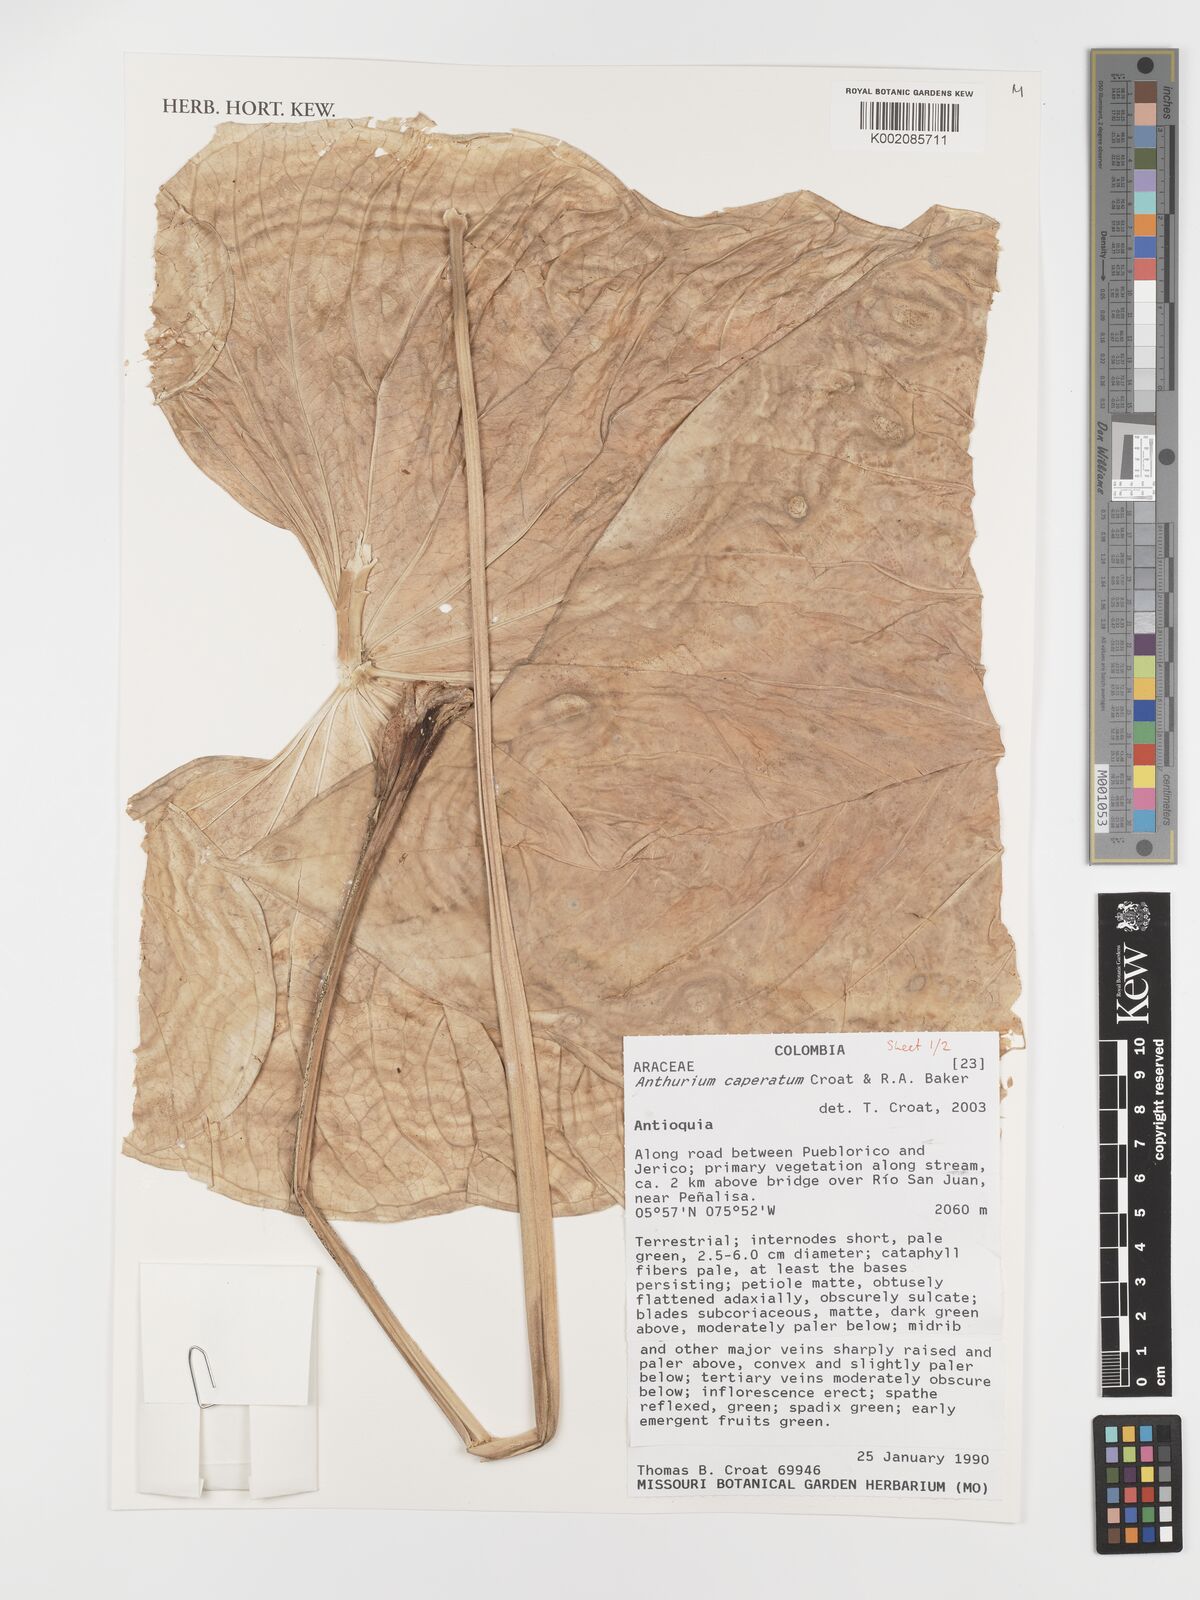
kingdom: Plantae
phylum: Tracheophyta
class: Liliopsida
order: Alismatales
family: Araceae
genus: Anthurium
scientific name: Anthurium caperatum
